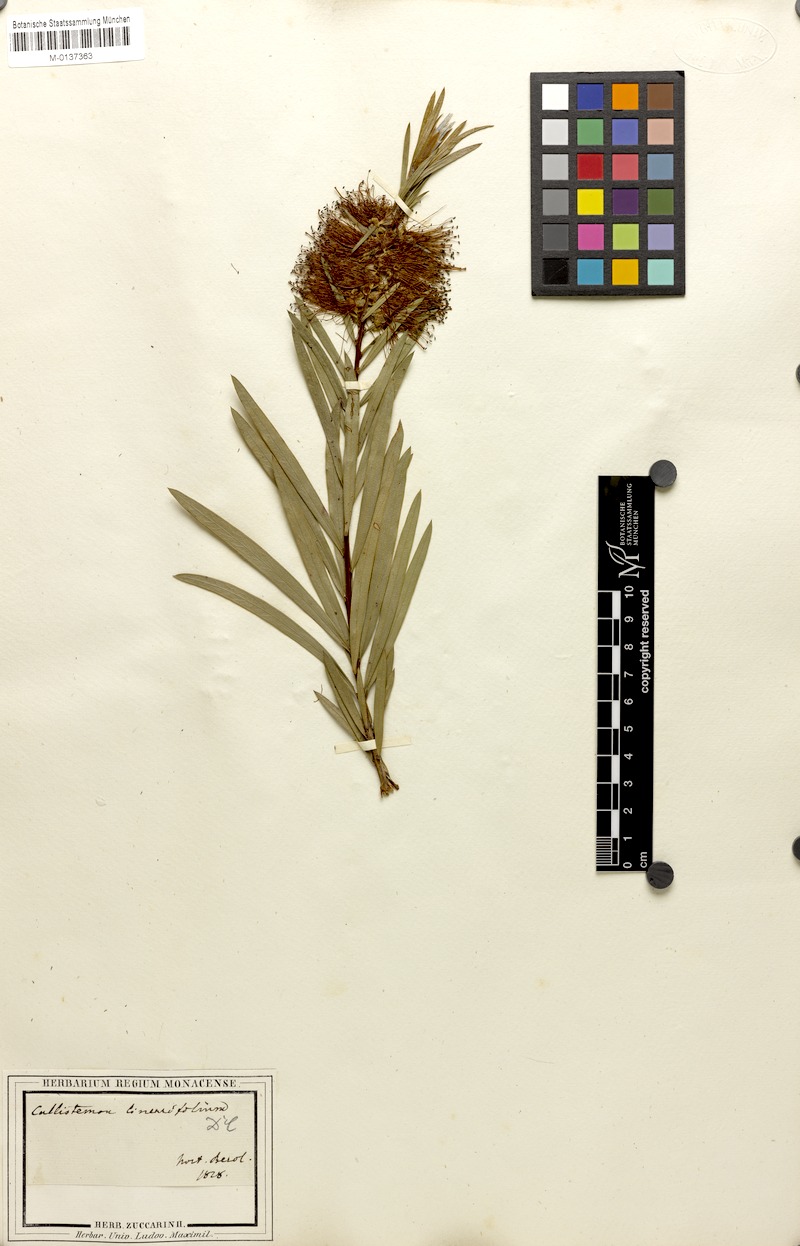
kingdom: Plantae
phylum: Tracheophyta
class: Magnoliopsida
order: Myrtales
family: Myrtaceae
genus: Callistemon
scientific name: Callistemon linearifolius
